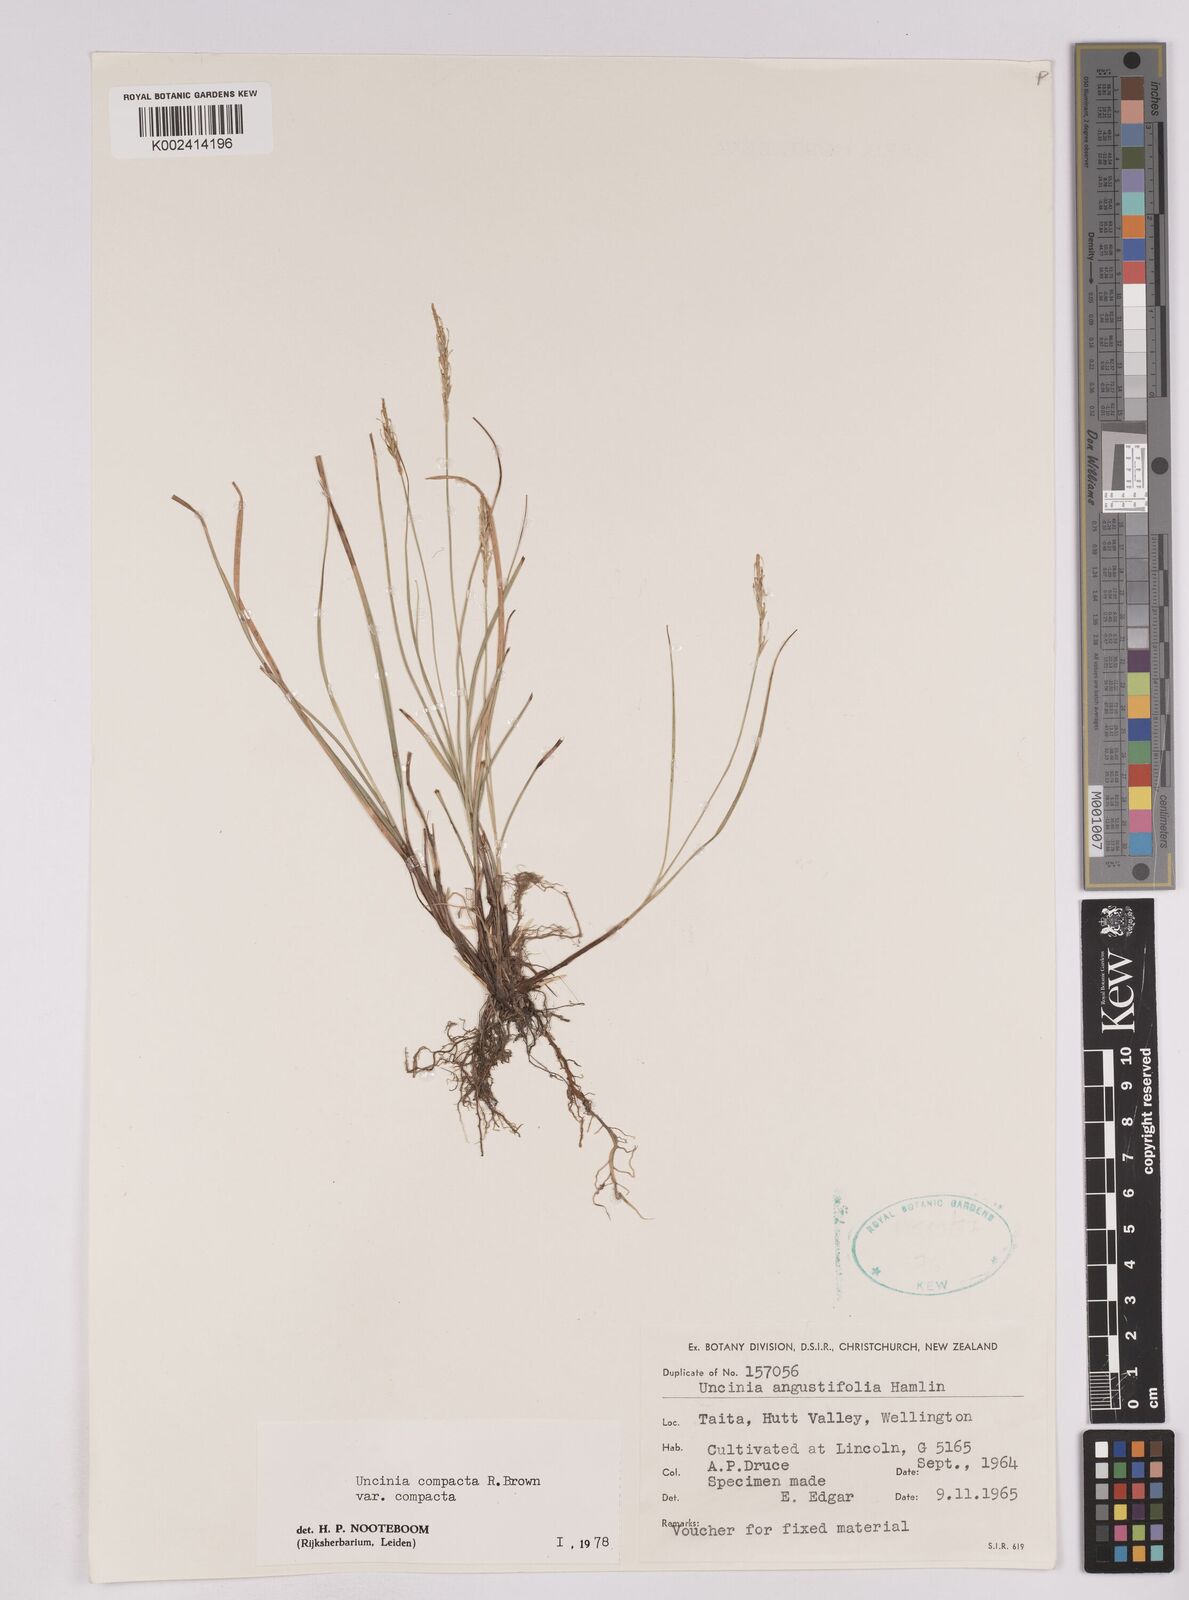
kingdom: Plantae
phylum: Tracheophyta
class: Liliopsida
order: Poales
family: Cyperaceae
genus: Carex
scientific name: Carex austrocompacta
